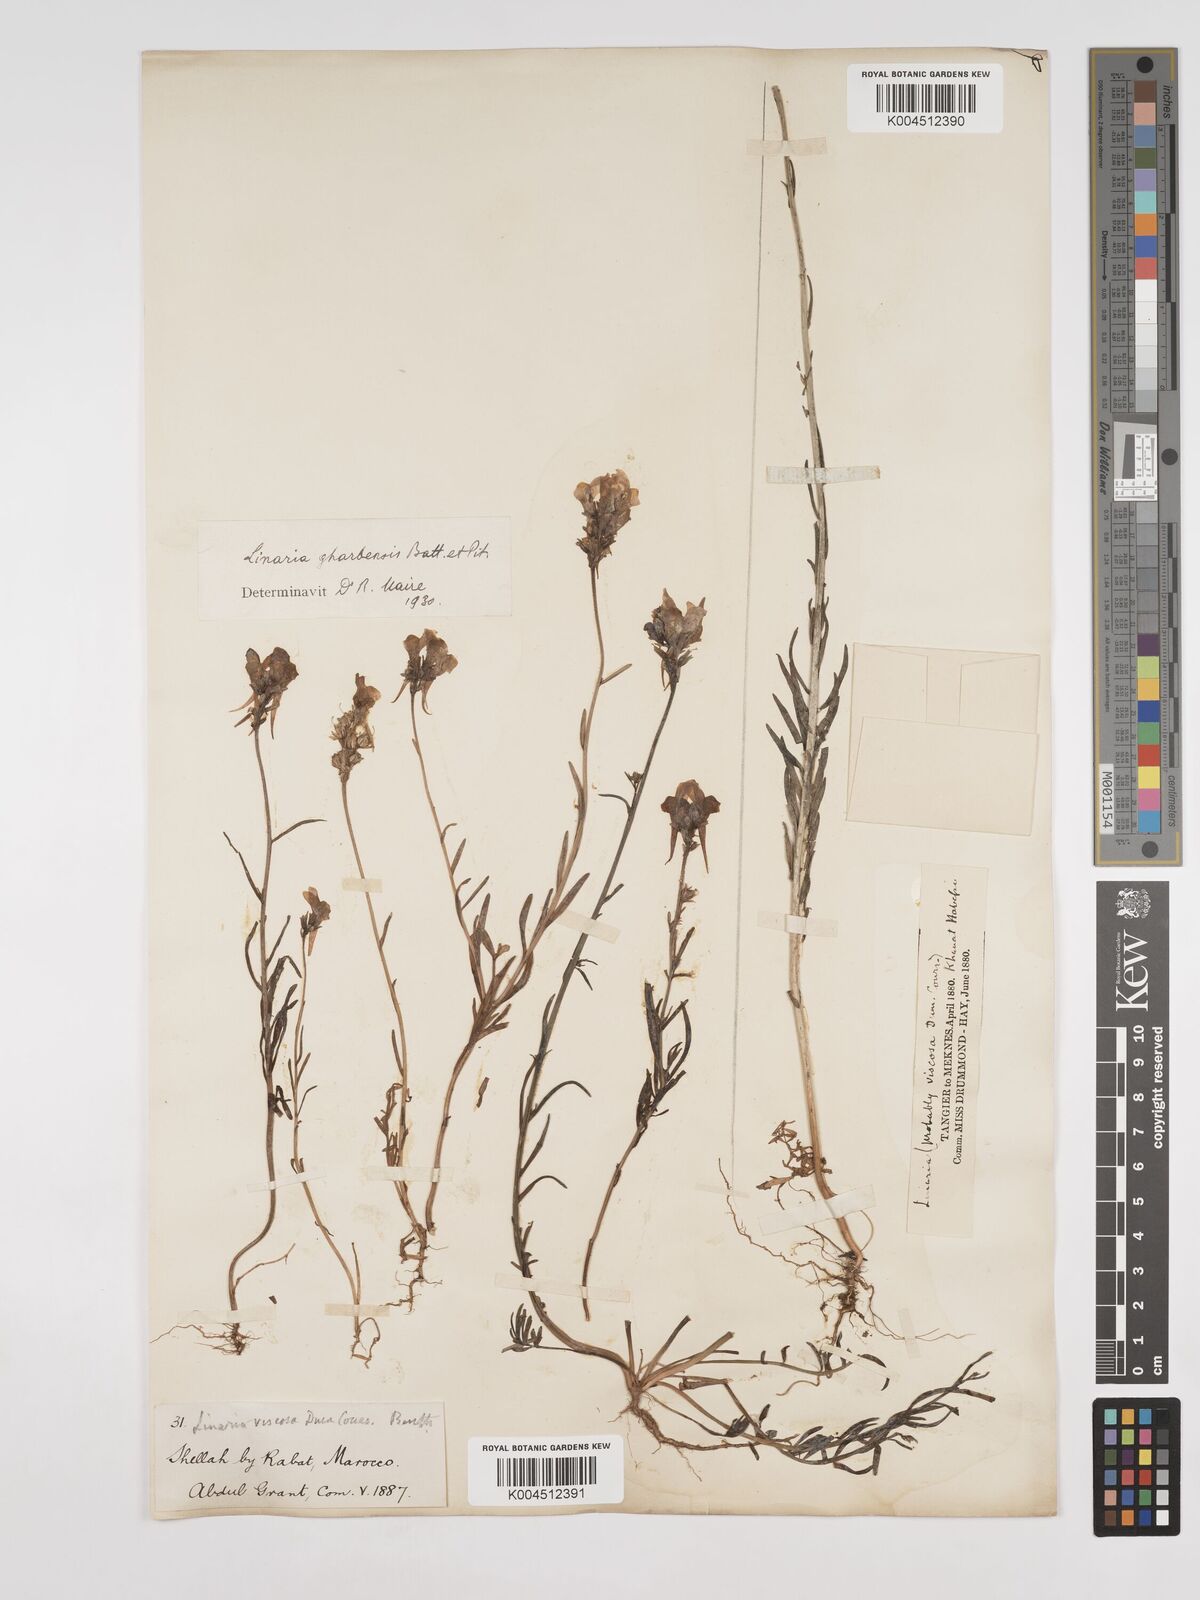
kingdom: Plantae
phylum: Tracheophyta
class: Magnoliopsida
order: Lamiales
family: Plantaginaceae
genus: Linaria
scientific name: Linaria gharbensis
